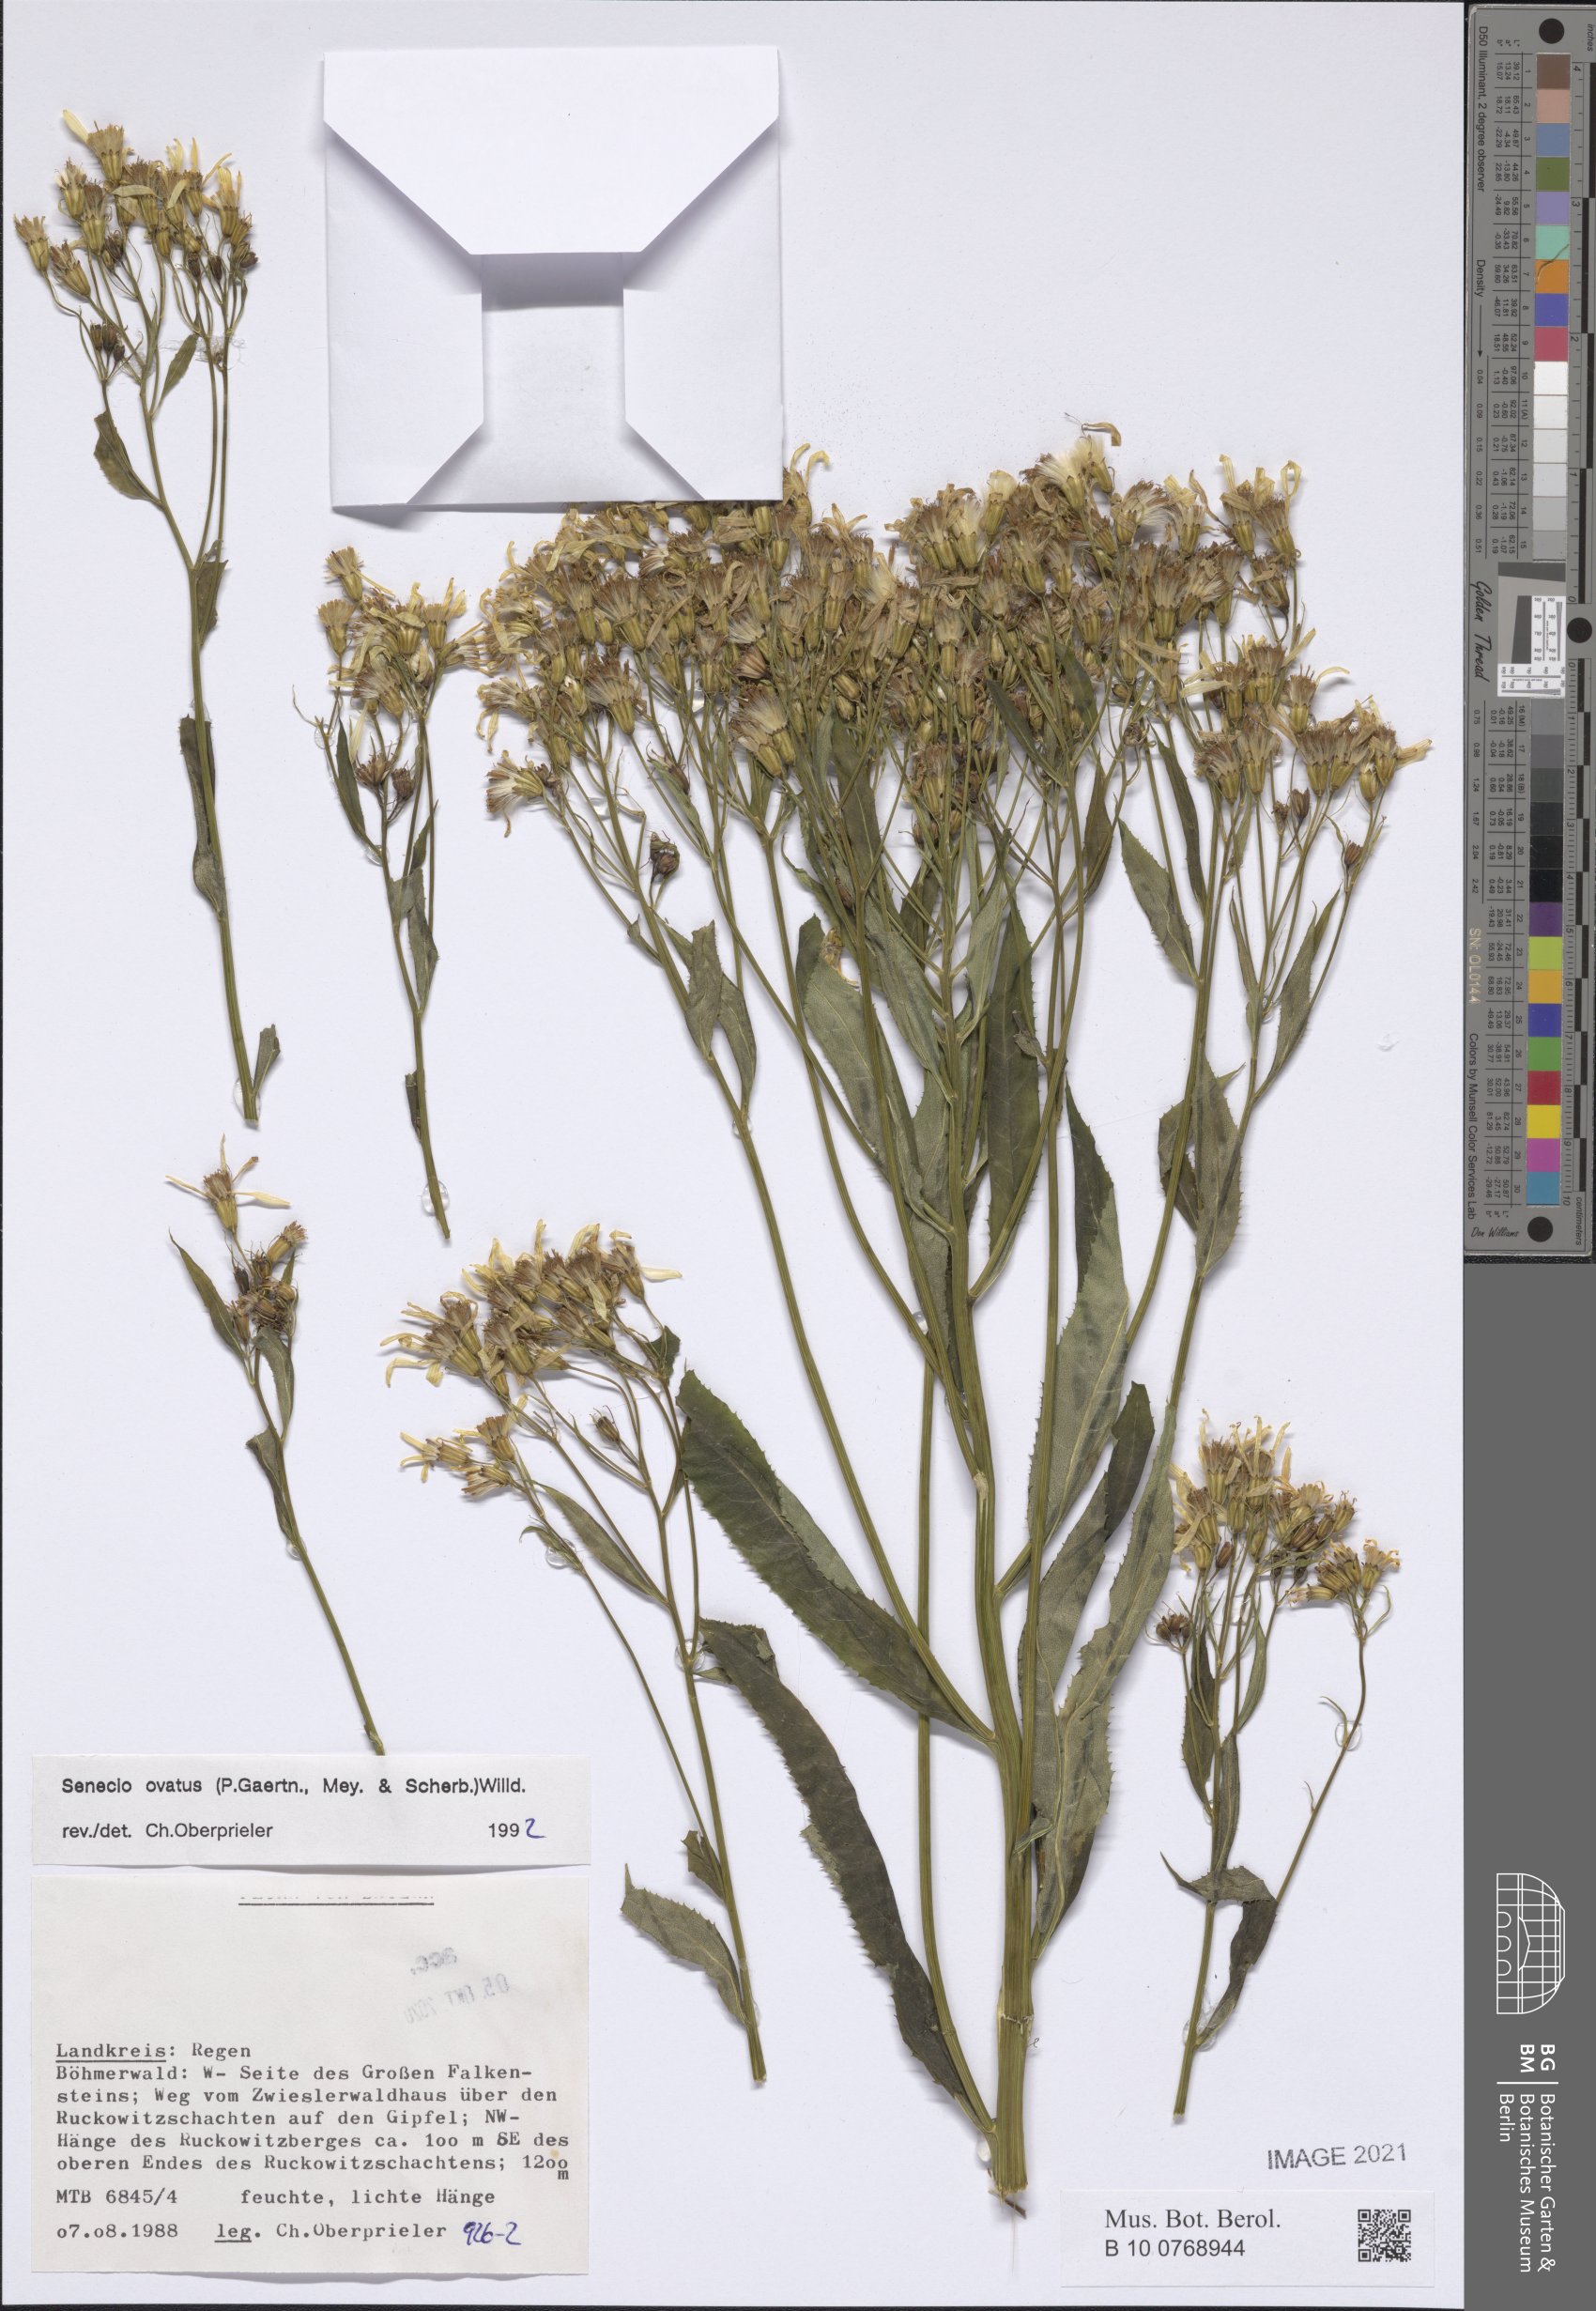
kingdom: Plantae
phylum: Tracheophyta
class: Magnoliopsida
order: Asterales
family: Asteraceae
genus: Senecio
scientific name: Senecio ovatus
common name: Wood ragwort
